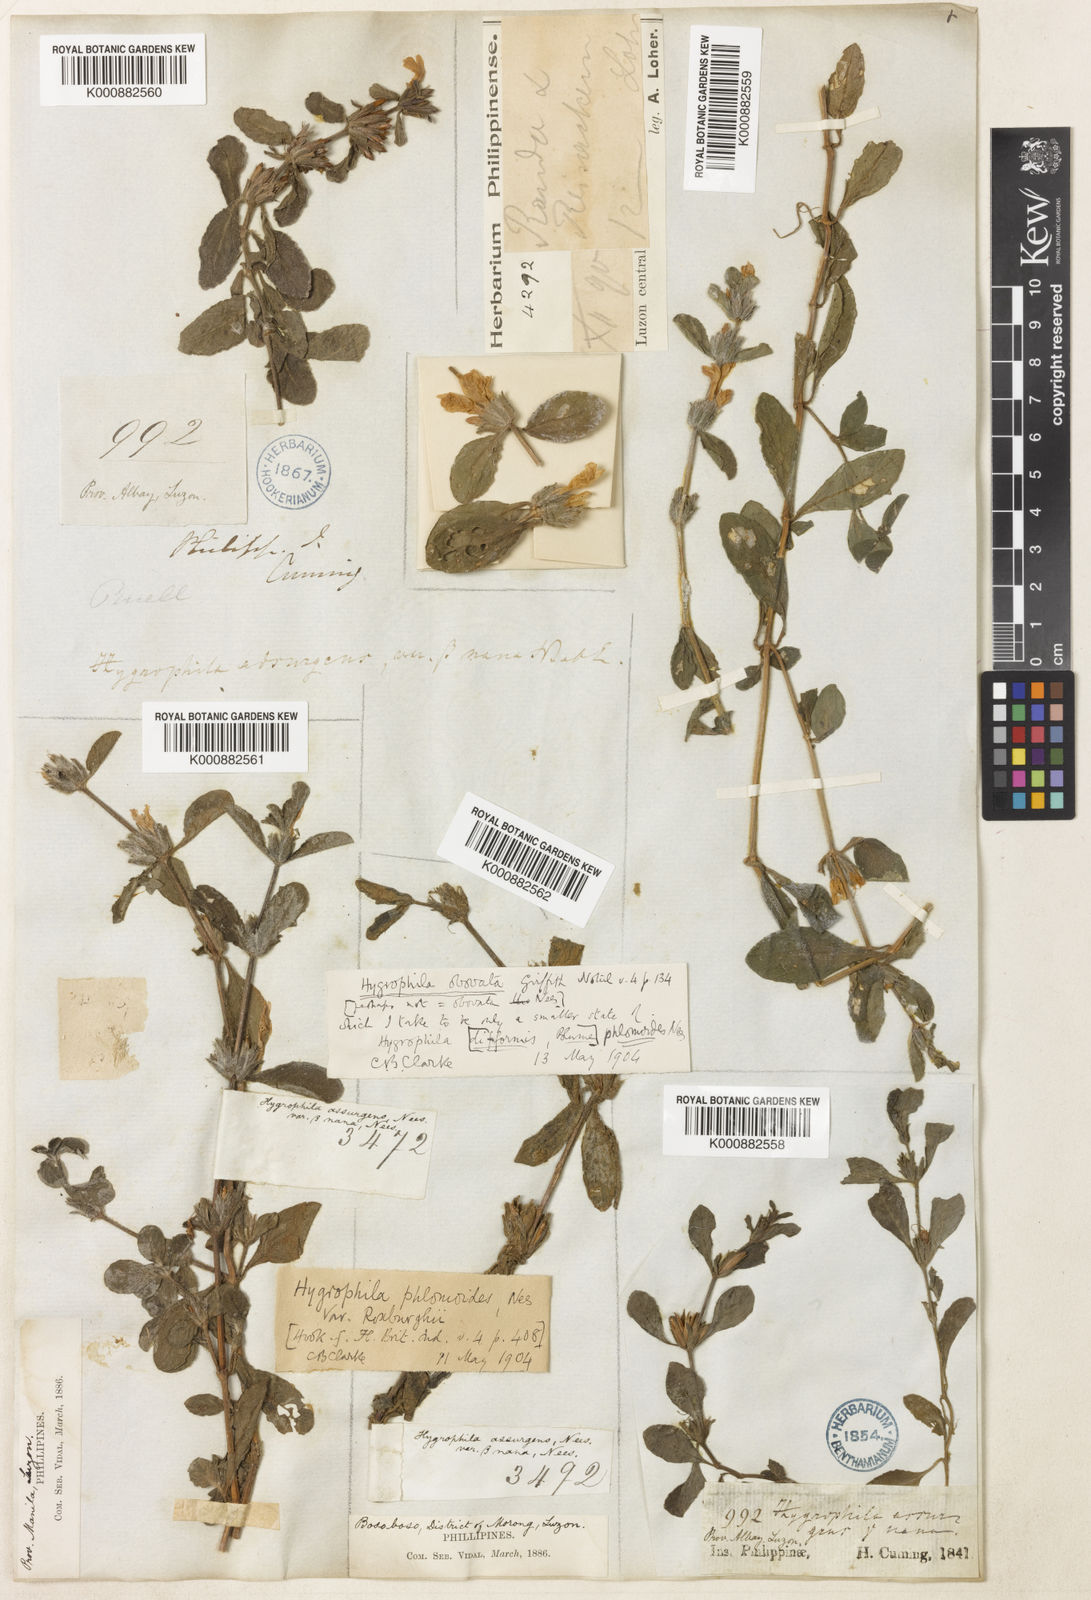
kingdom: Plantae
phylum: Tracheophyta
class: Magnoliopsida
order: Lamiales
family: Acanthaceae
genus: Hygrophila
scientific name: Hygrophila ringens
